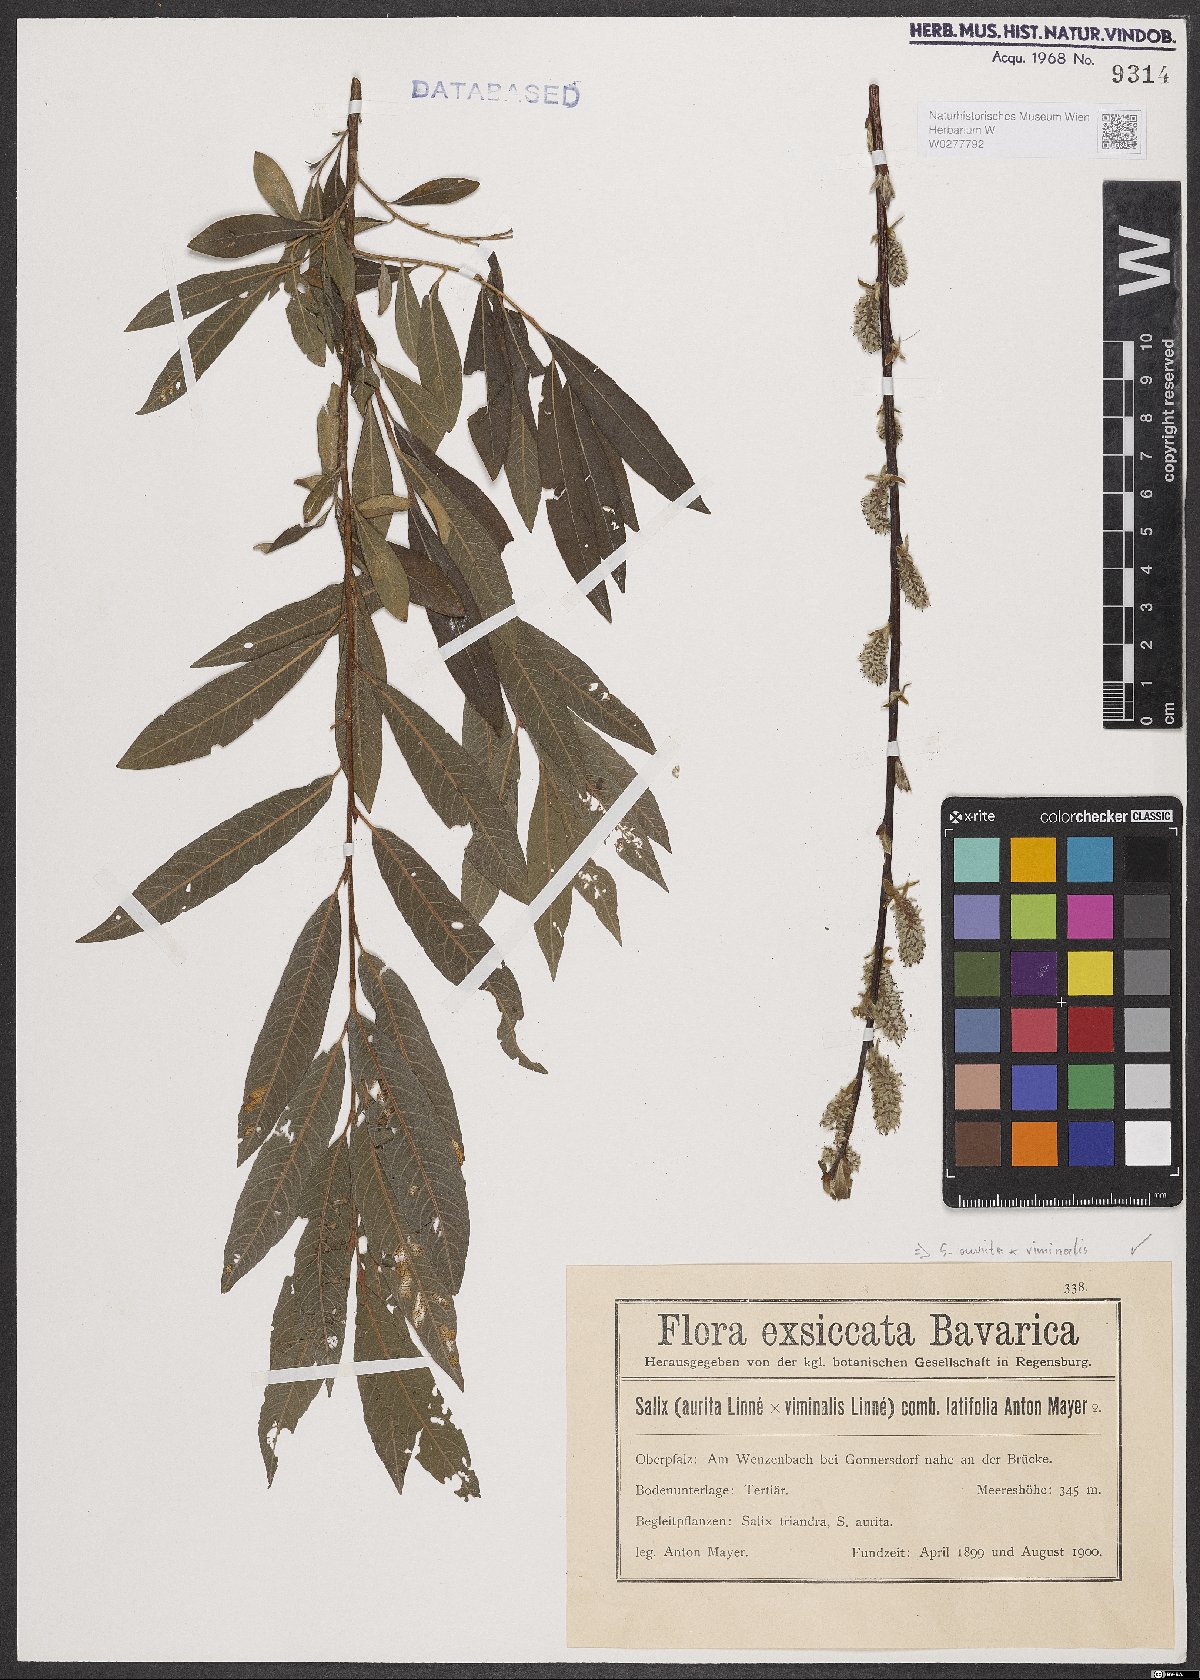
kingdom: Plantae
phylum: Tracheophyta
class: Magnoliopsida
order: Malpighiales
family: Salicaceae
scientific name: Salicaceae
